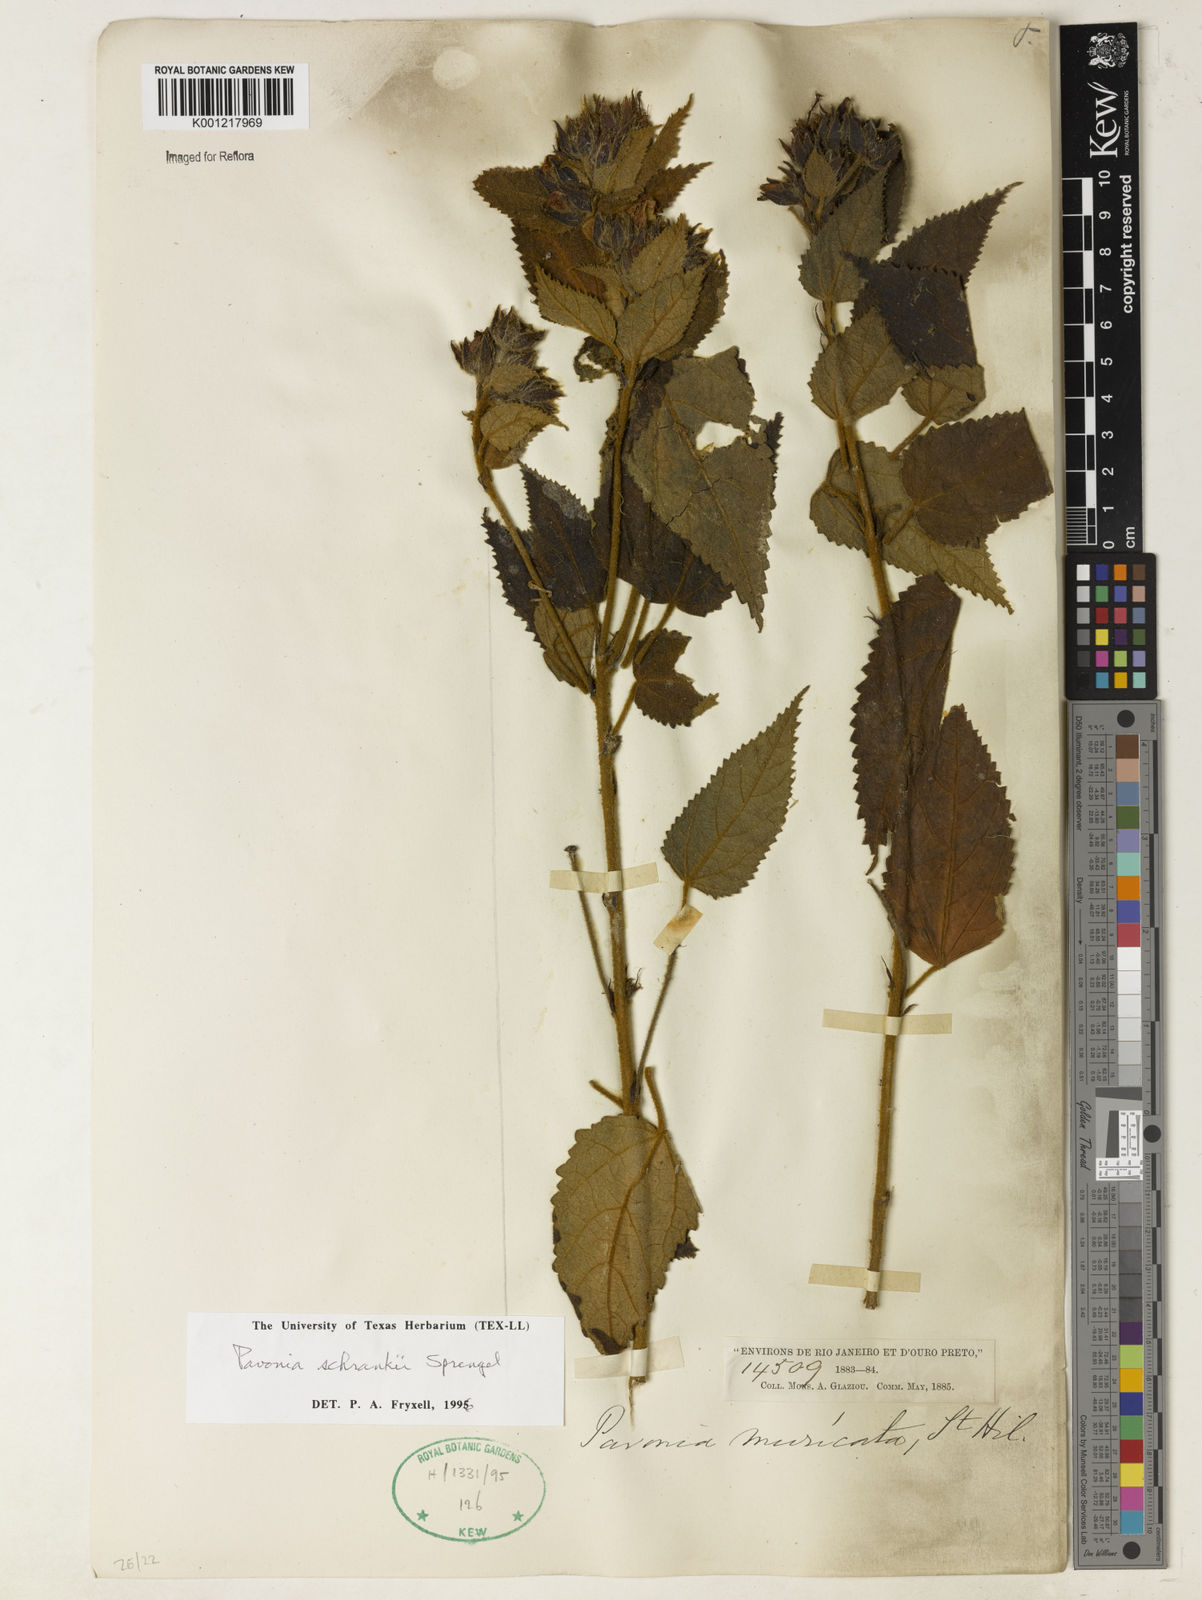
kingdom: Plantae
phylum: Tracheophyta
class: Magnoliopsida
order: Malvales
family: Malvaceae
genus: Pavonia
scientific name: Pavonia schrankii
